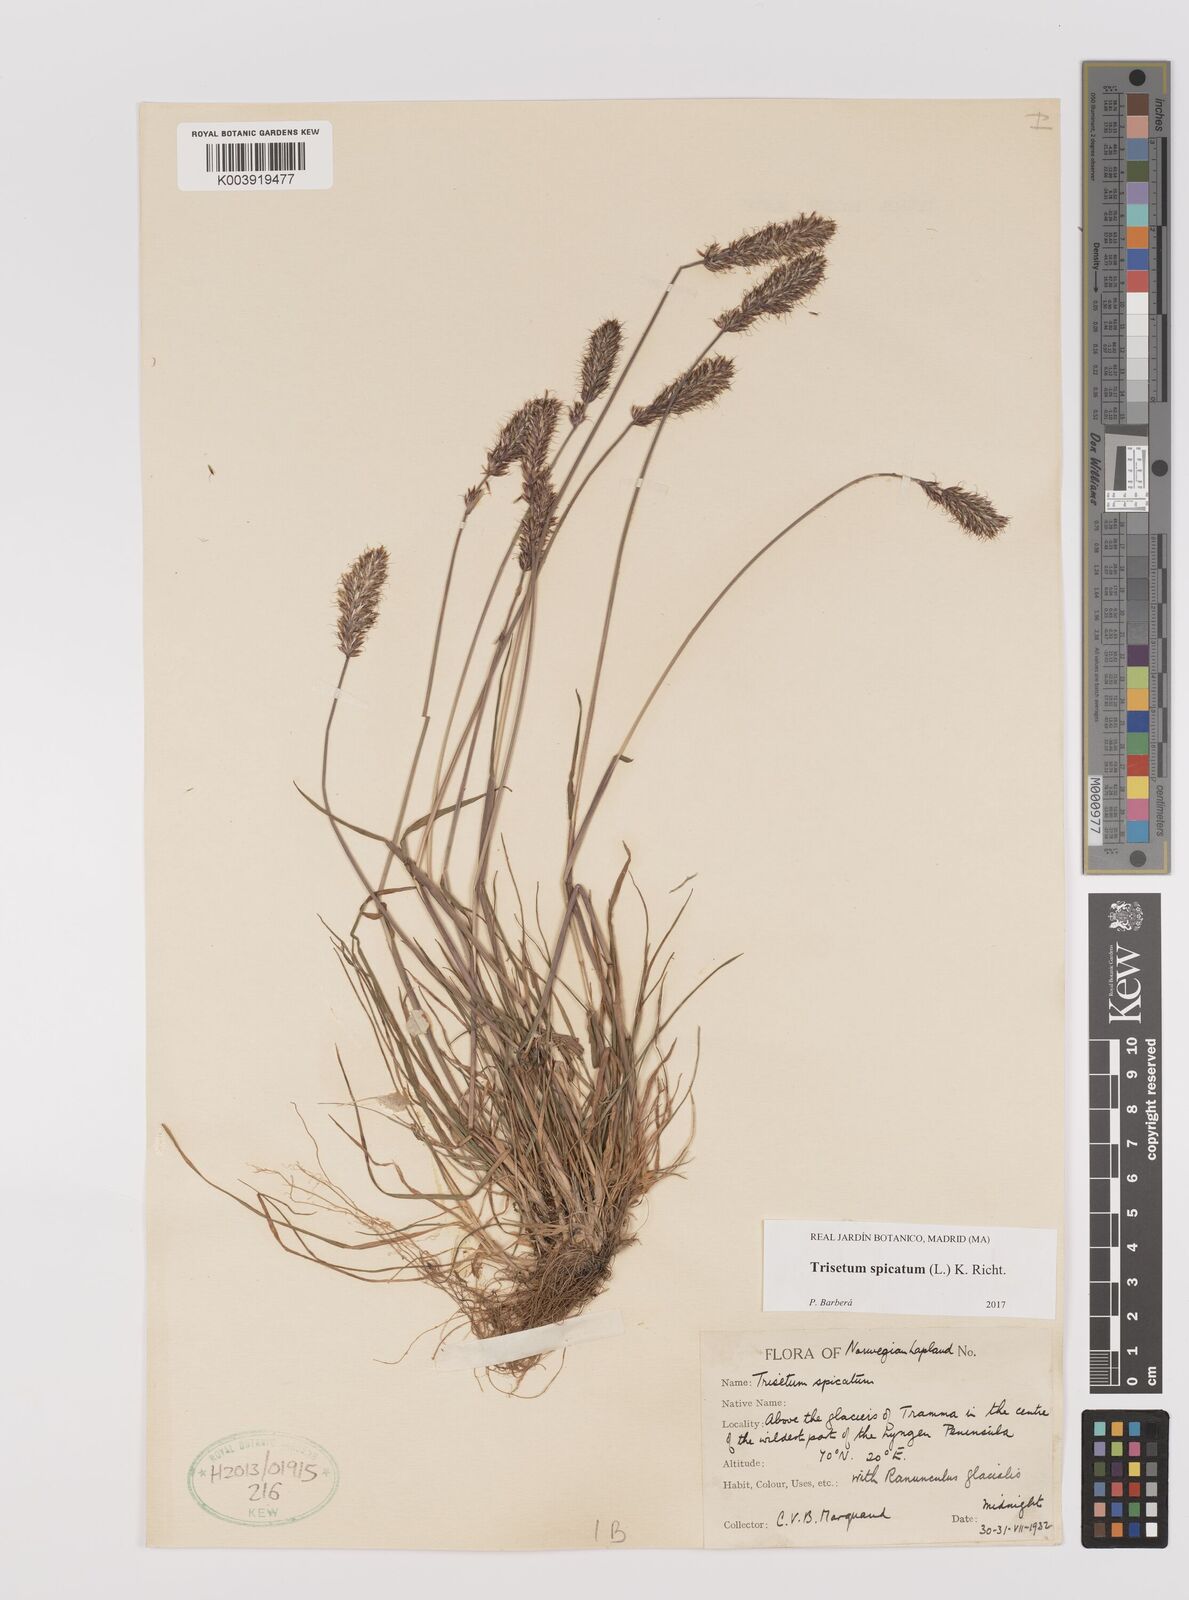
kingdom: Plantae
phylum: Tracheophyta
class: Liliopsida
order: Poales
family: Poaceae
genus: Koeleria
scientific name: Koeleria spicata
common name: Mountain trisetum
